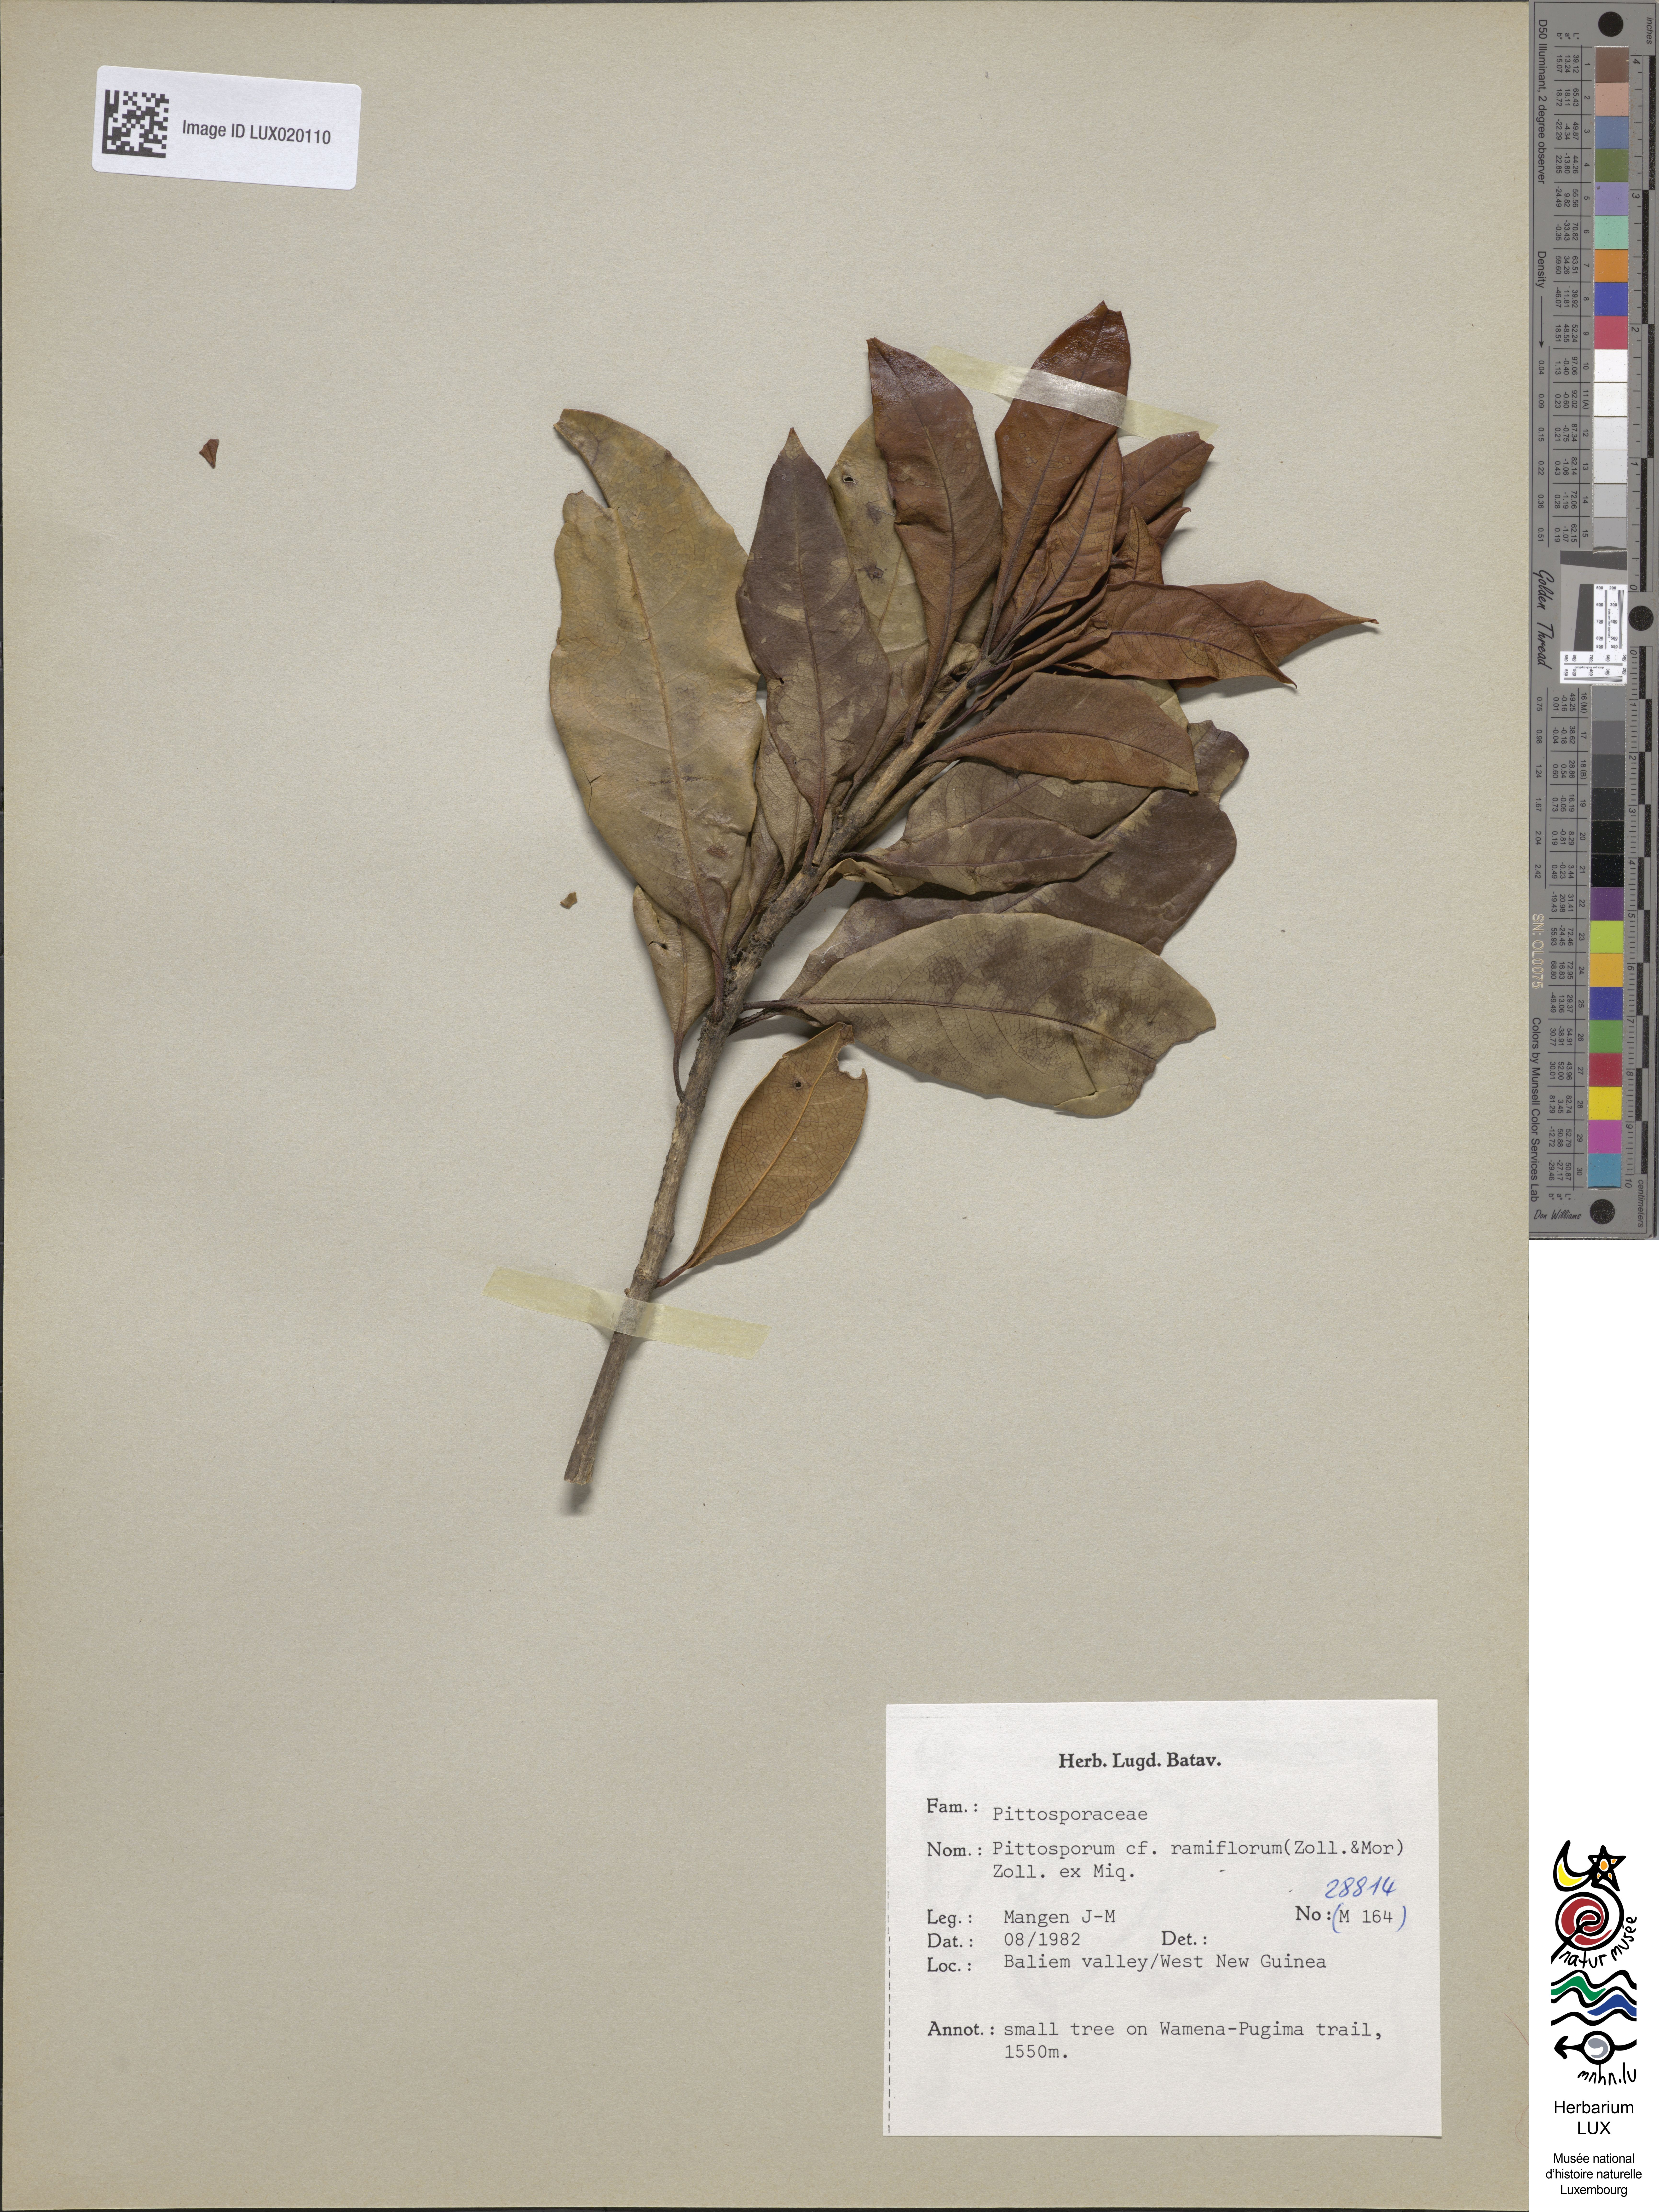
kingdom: Plantae
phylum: Tracheophyta
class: Magnoliopsida
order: Apiales
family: Pittosporaceae
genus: Pittosporum
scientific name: Pittosporum ramiflorum
